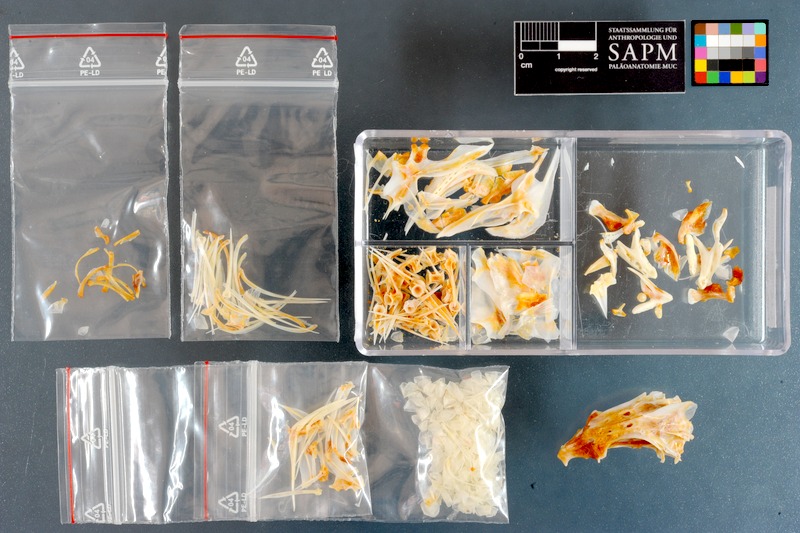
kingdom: Animalia
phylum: Chordata
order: Perciformes
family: Lethrinidae
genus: Lethrinus
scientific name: Lethrinus miniatus
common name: Trumpet emperor
